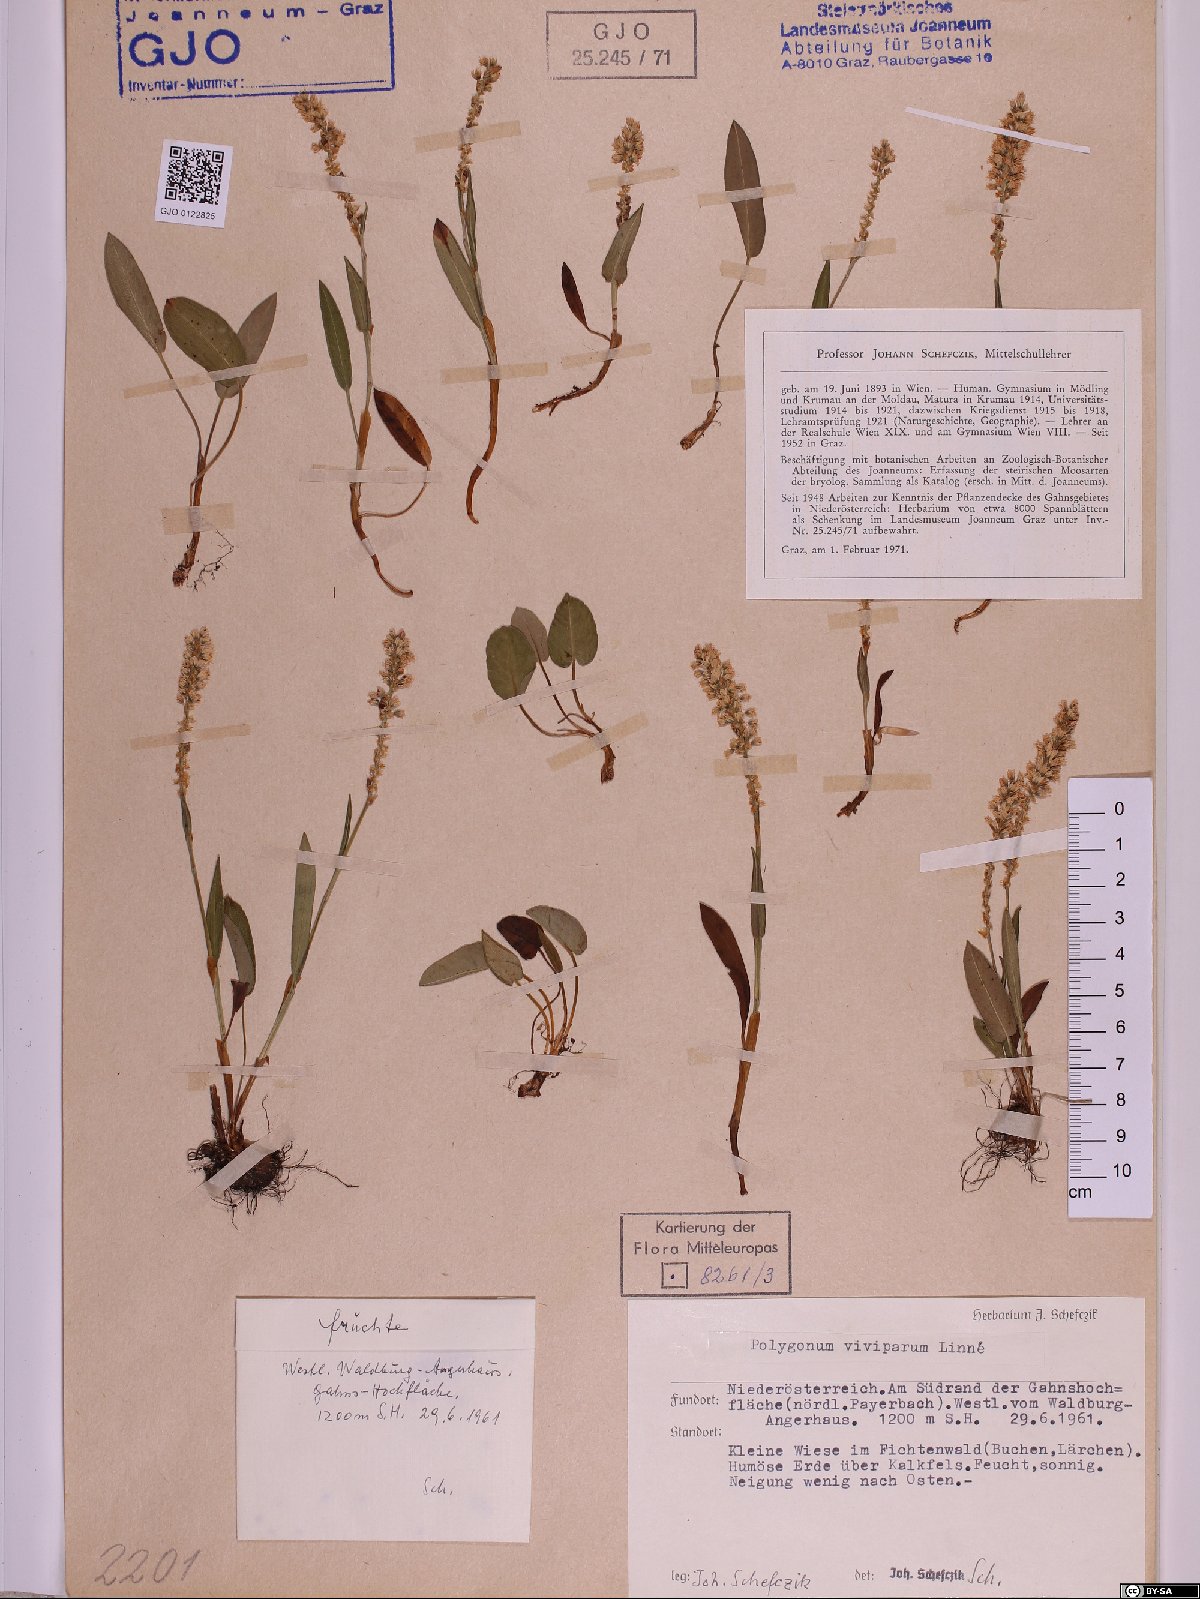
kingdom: Plantae
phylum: Tracheophyta
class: Magnoliopsida
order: Caryophyllales
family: Polygonaceae
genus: Bistorta
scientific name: Bistorta vivipara
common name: Alpine bistort
